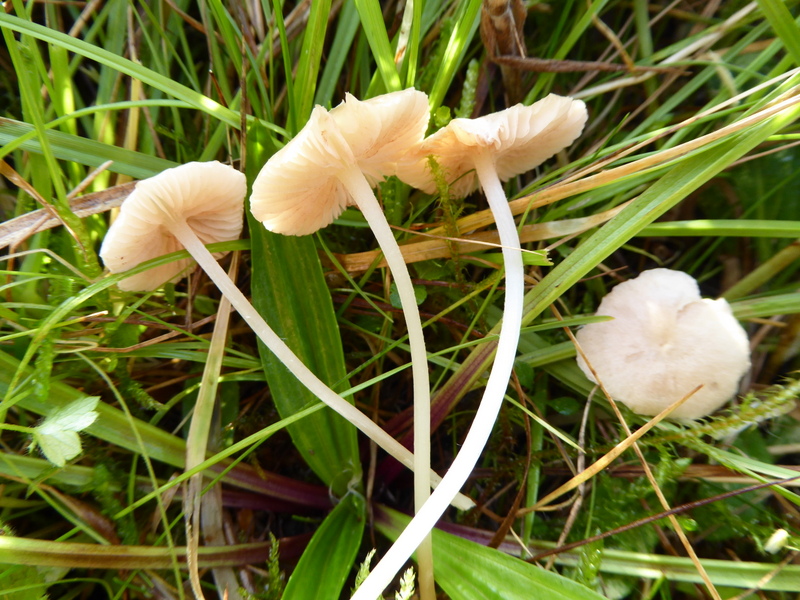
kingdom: Fungi
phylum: Basidiomycota
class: Agaricomycetes
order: Agaricales
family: Entolomataceae
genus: Entoloma
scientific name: Entoloma sericellum
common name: silkehvid rødblad
